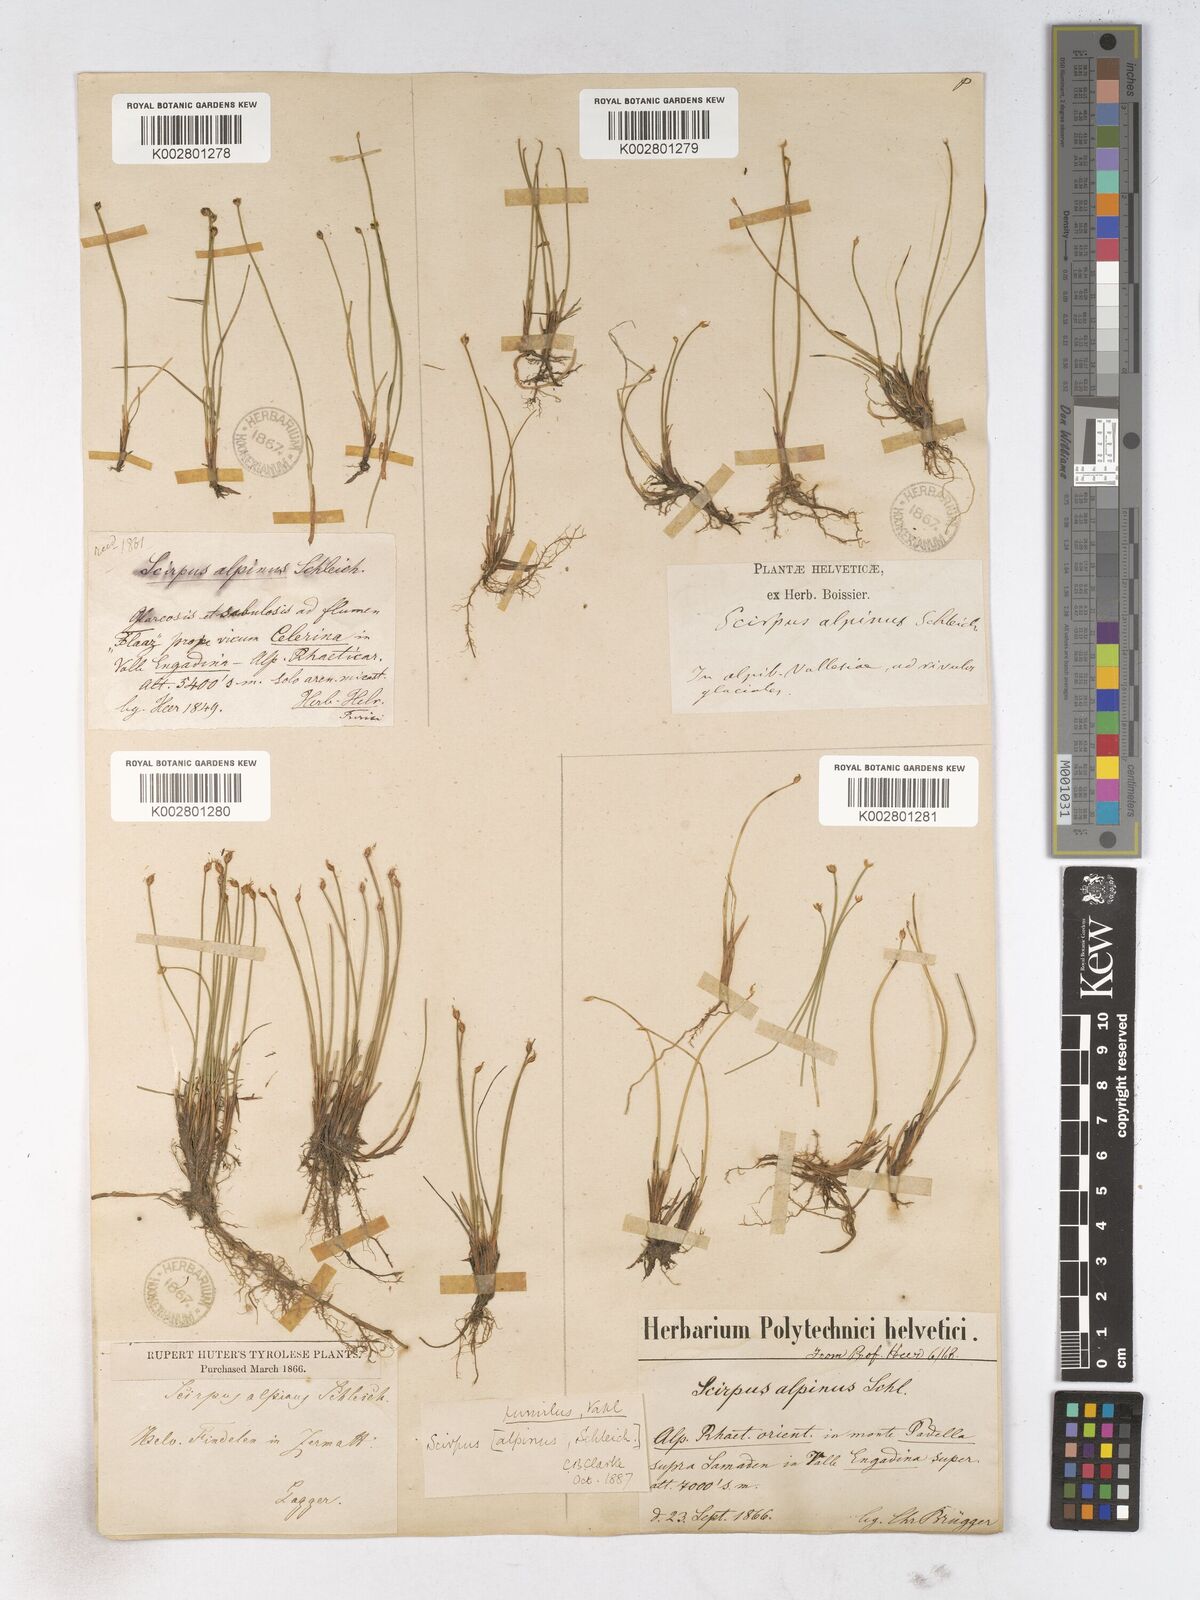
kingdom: Plantae
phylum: Tracheophyta
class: Liliopsida
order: Poales
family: Cyperaceae
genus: Trichophorum
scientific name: Trichophorum pumilum
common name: Rolland's bulrush
